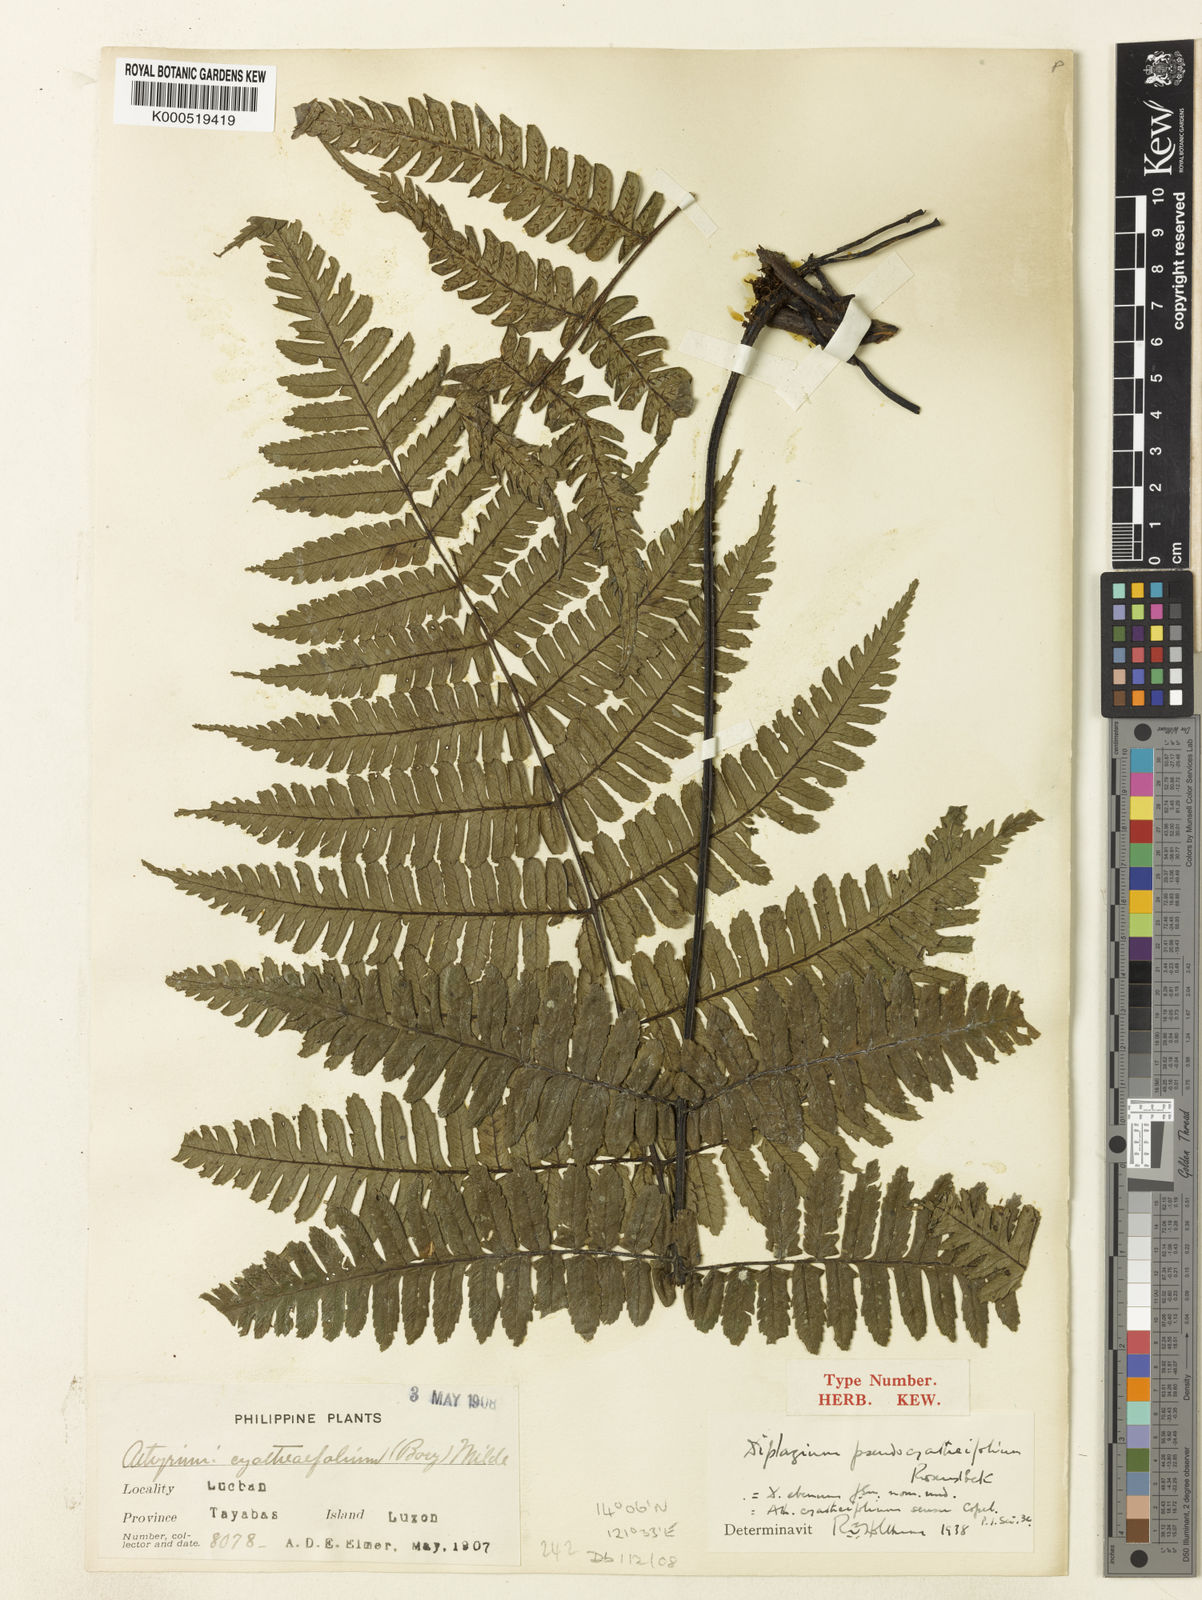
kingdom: Plantae
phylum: Tracheophyta
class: Polypodiopsida
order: Polypodiales
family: Athyriaceae
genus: Diplazium
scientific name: Diplazium pseudocyatheifolium
